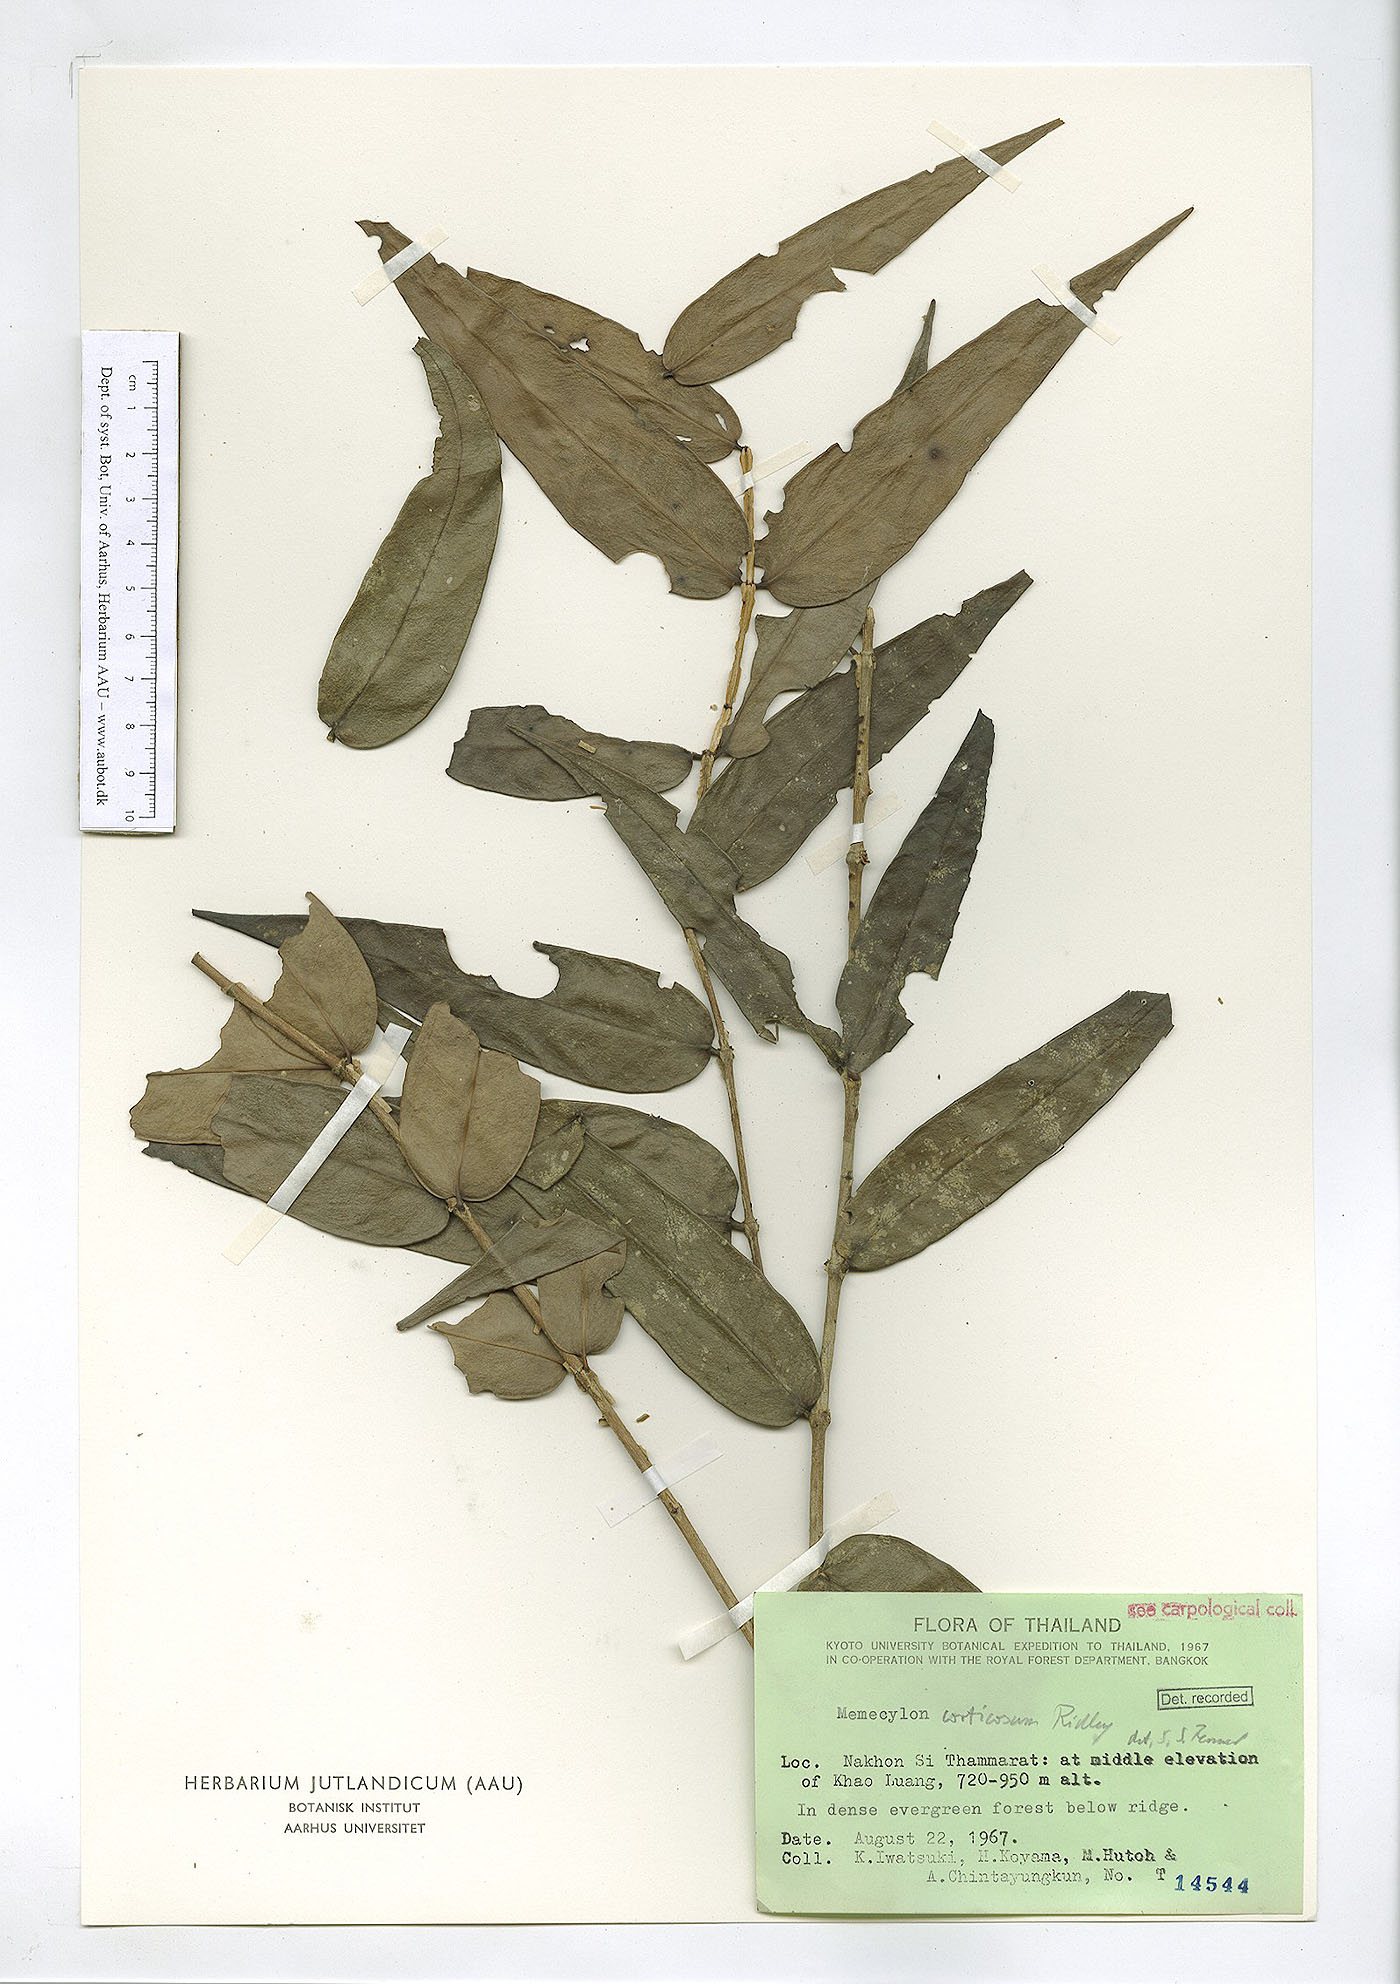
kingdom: Plantae
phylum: Tracheophyta
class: Magnoliopsida
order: Myrtales
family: Melastomataceae
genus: Memecylon
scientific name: Memecylon corticosum
